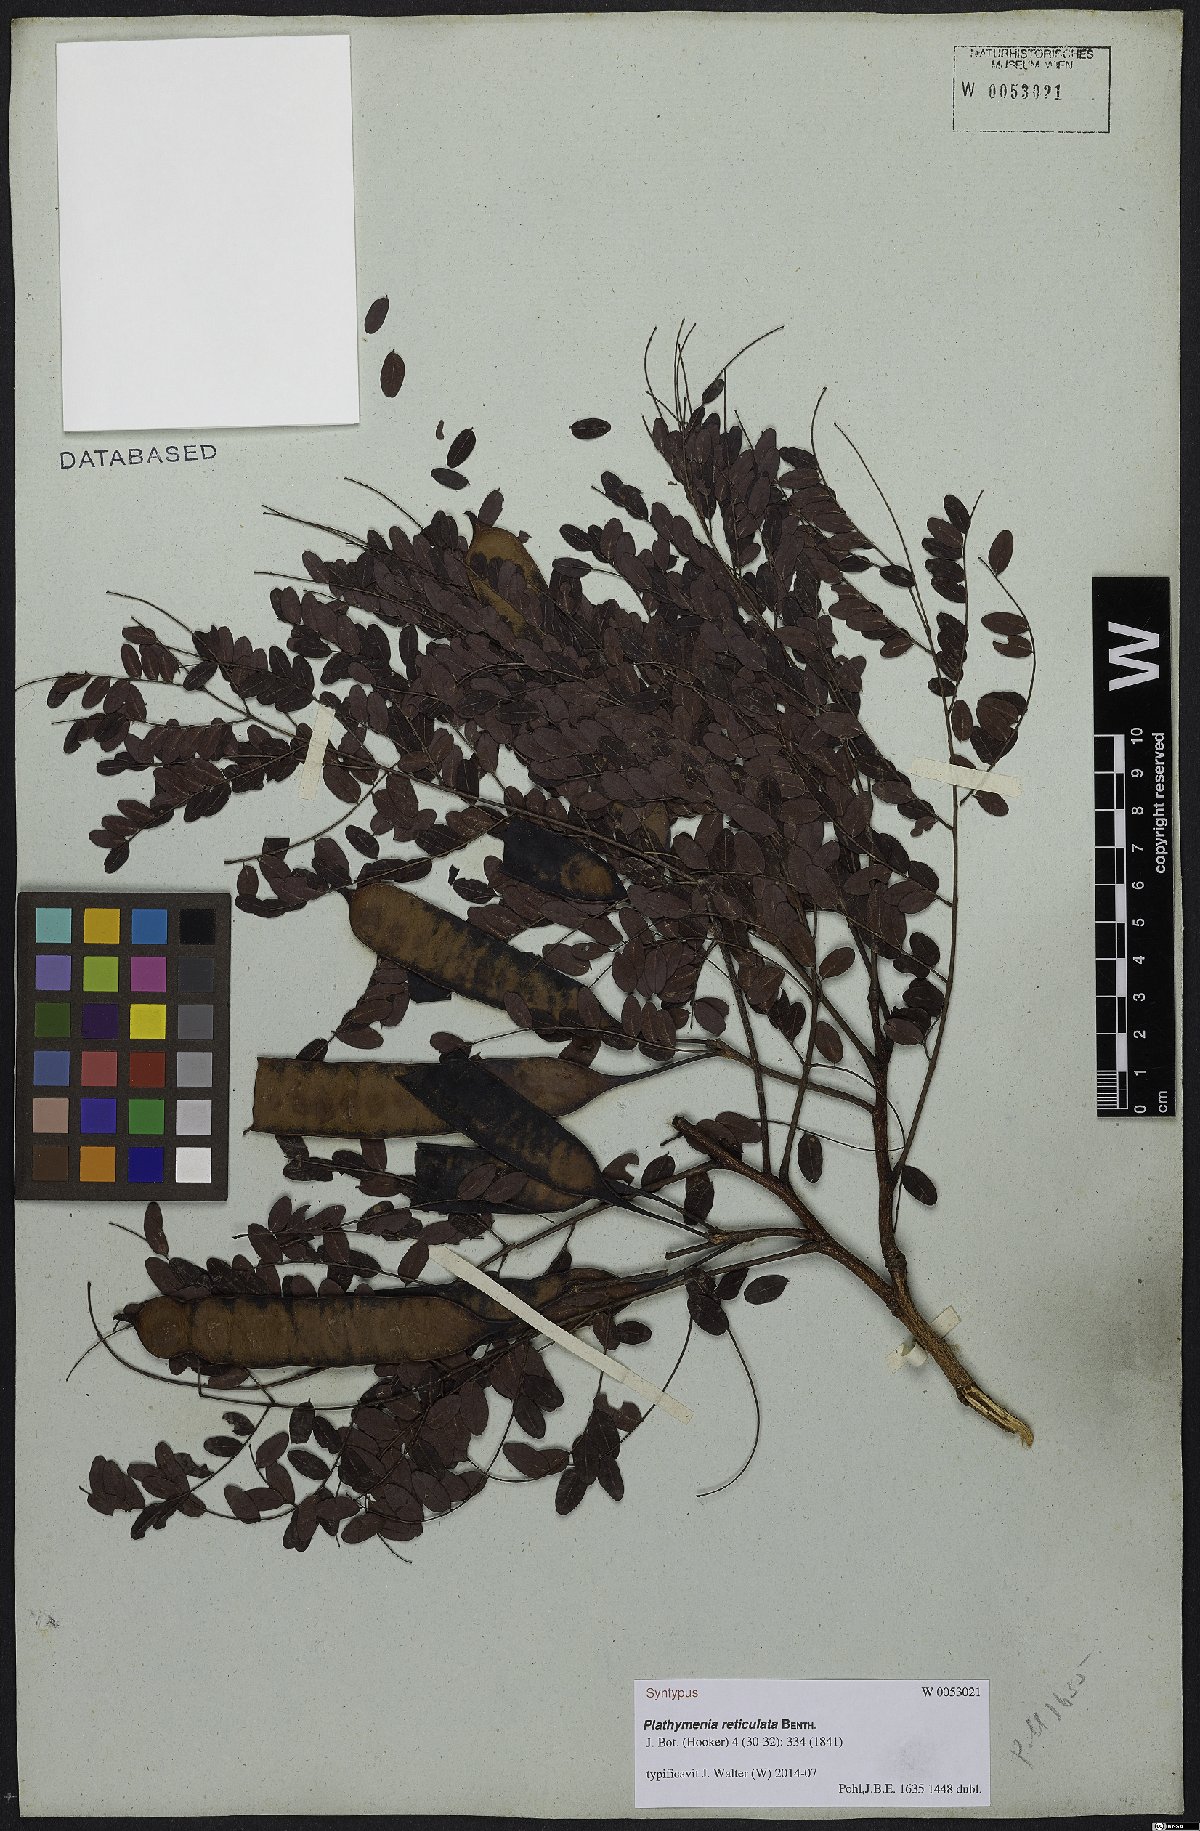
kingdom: Plantae
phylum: Tracheophyta
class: Magnoliopsida
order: Fabales
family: Fabaceae
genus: Plathymenia
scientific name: Plathymenia reticulata
